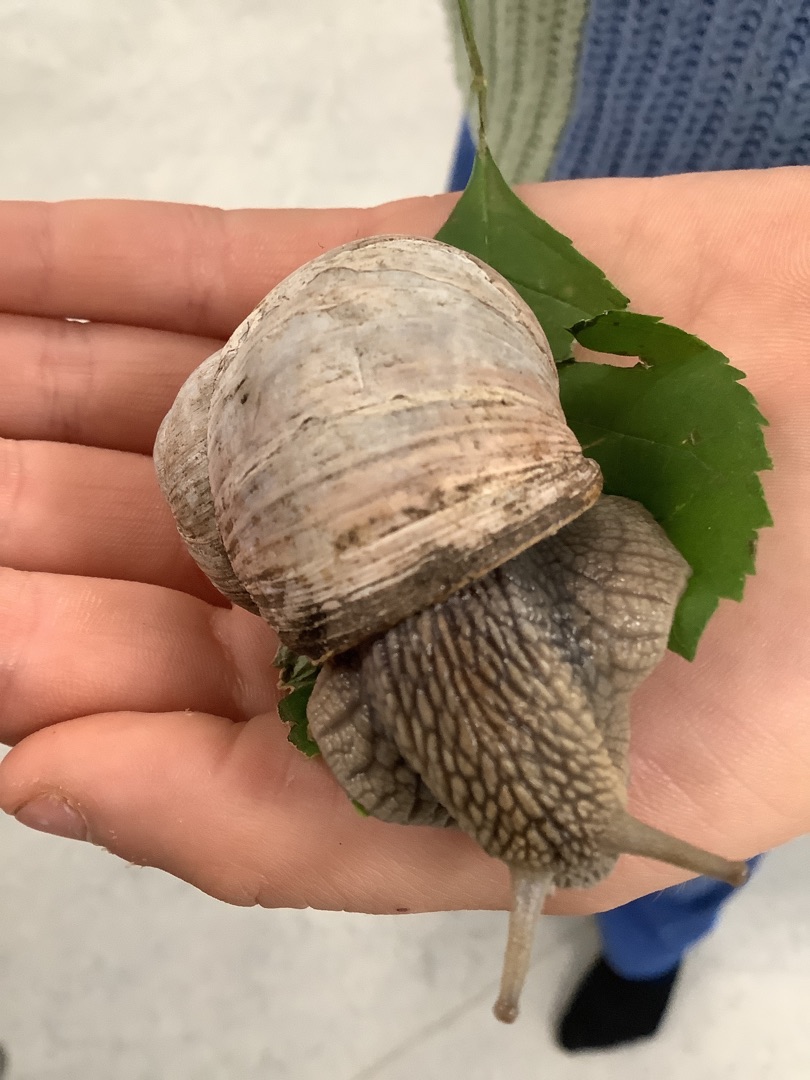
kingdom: Animalia
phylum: Mollusca
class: Gastropoda
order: Stylommatophora
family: Helicidae
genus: Helix
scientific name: Helix pomatia
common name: Vinbjergsnegl
